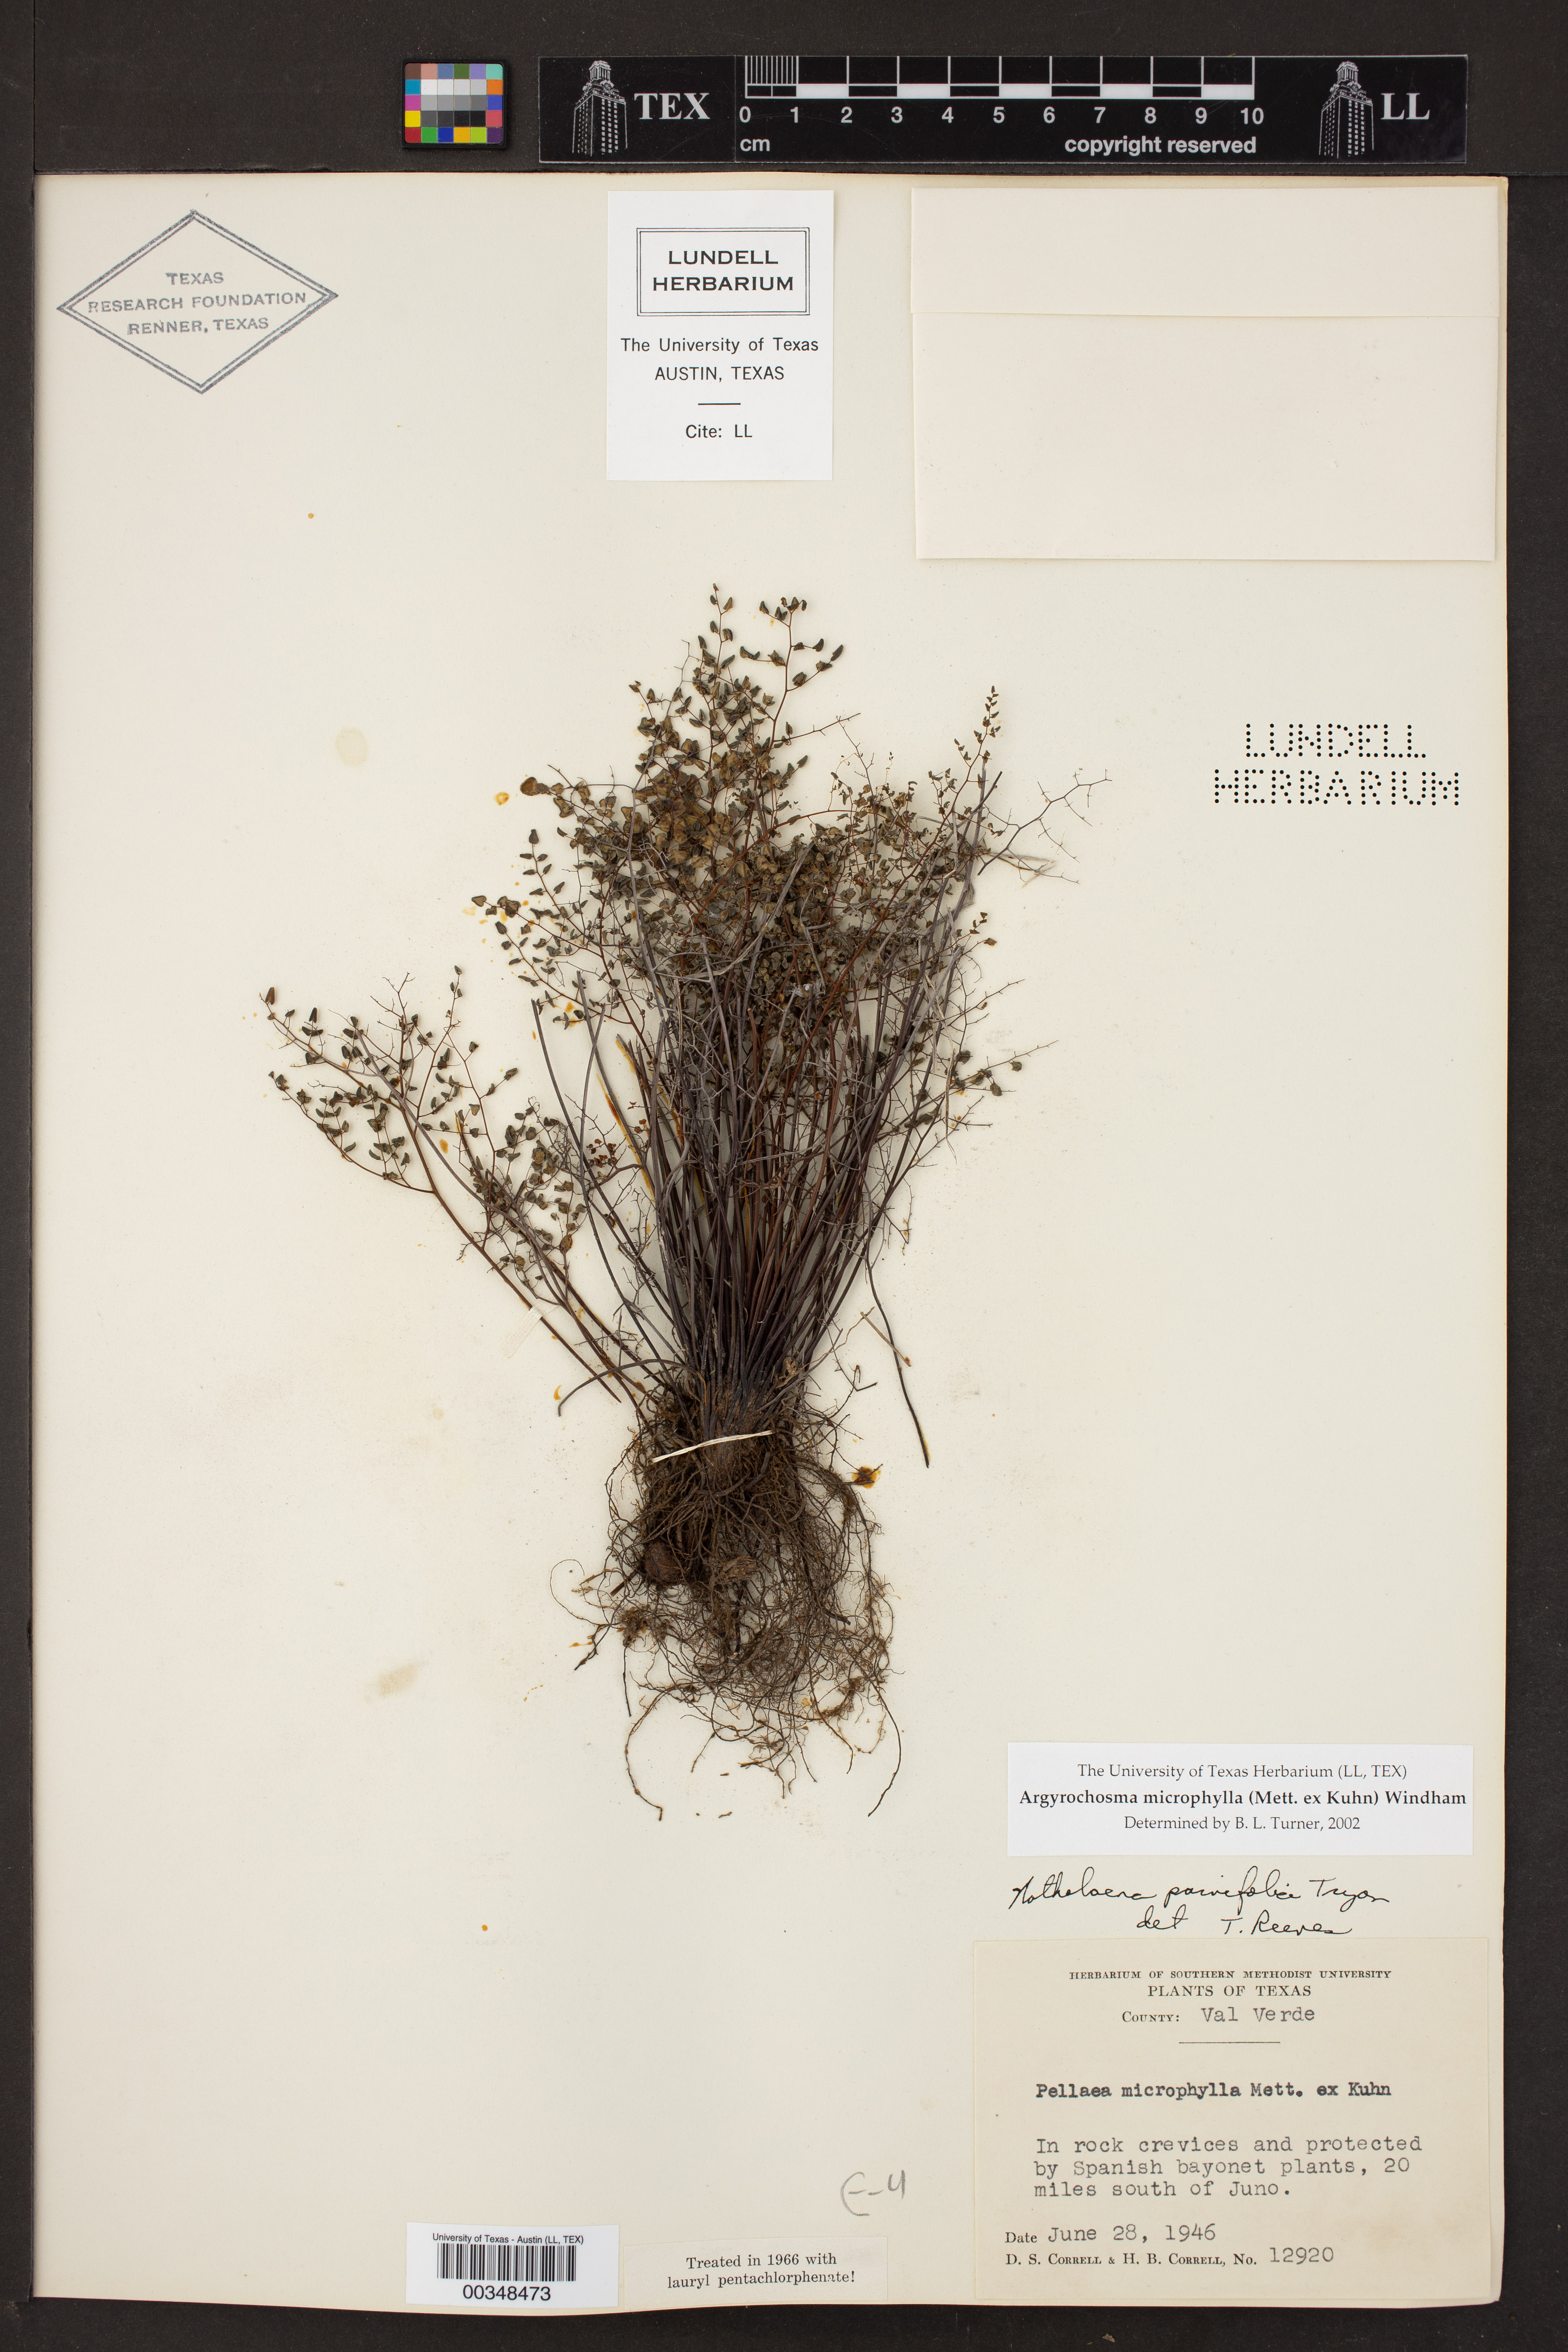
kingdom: Plantae
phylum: Tracheophyta
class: Polypodiopsida
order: Polypodiales
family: Pteridaceae
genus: Argyrochosma
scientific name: Argyrochosma microphylla
